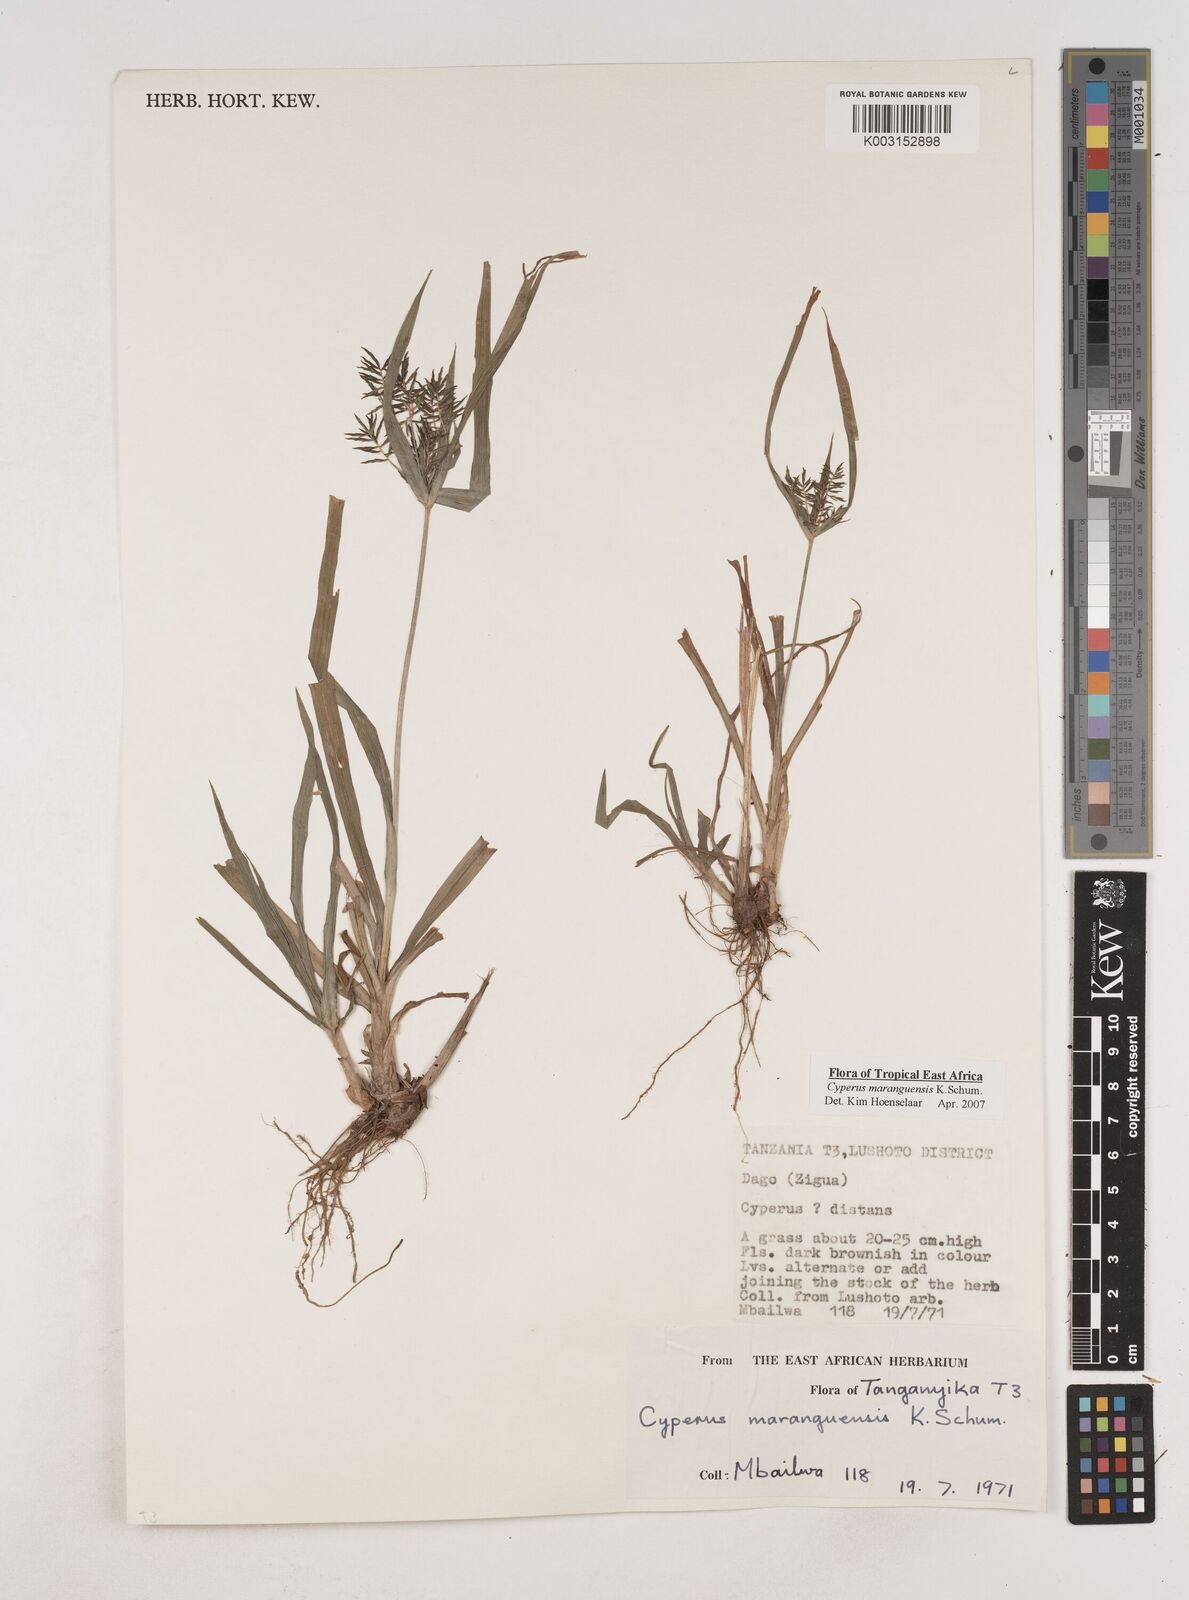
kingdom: Plantae
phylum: Tracheophyta
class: Liliopsida
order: Poales
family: Cyperaceae
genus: Cyperus
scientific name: Cyperus maranguensis
